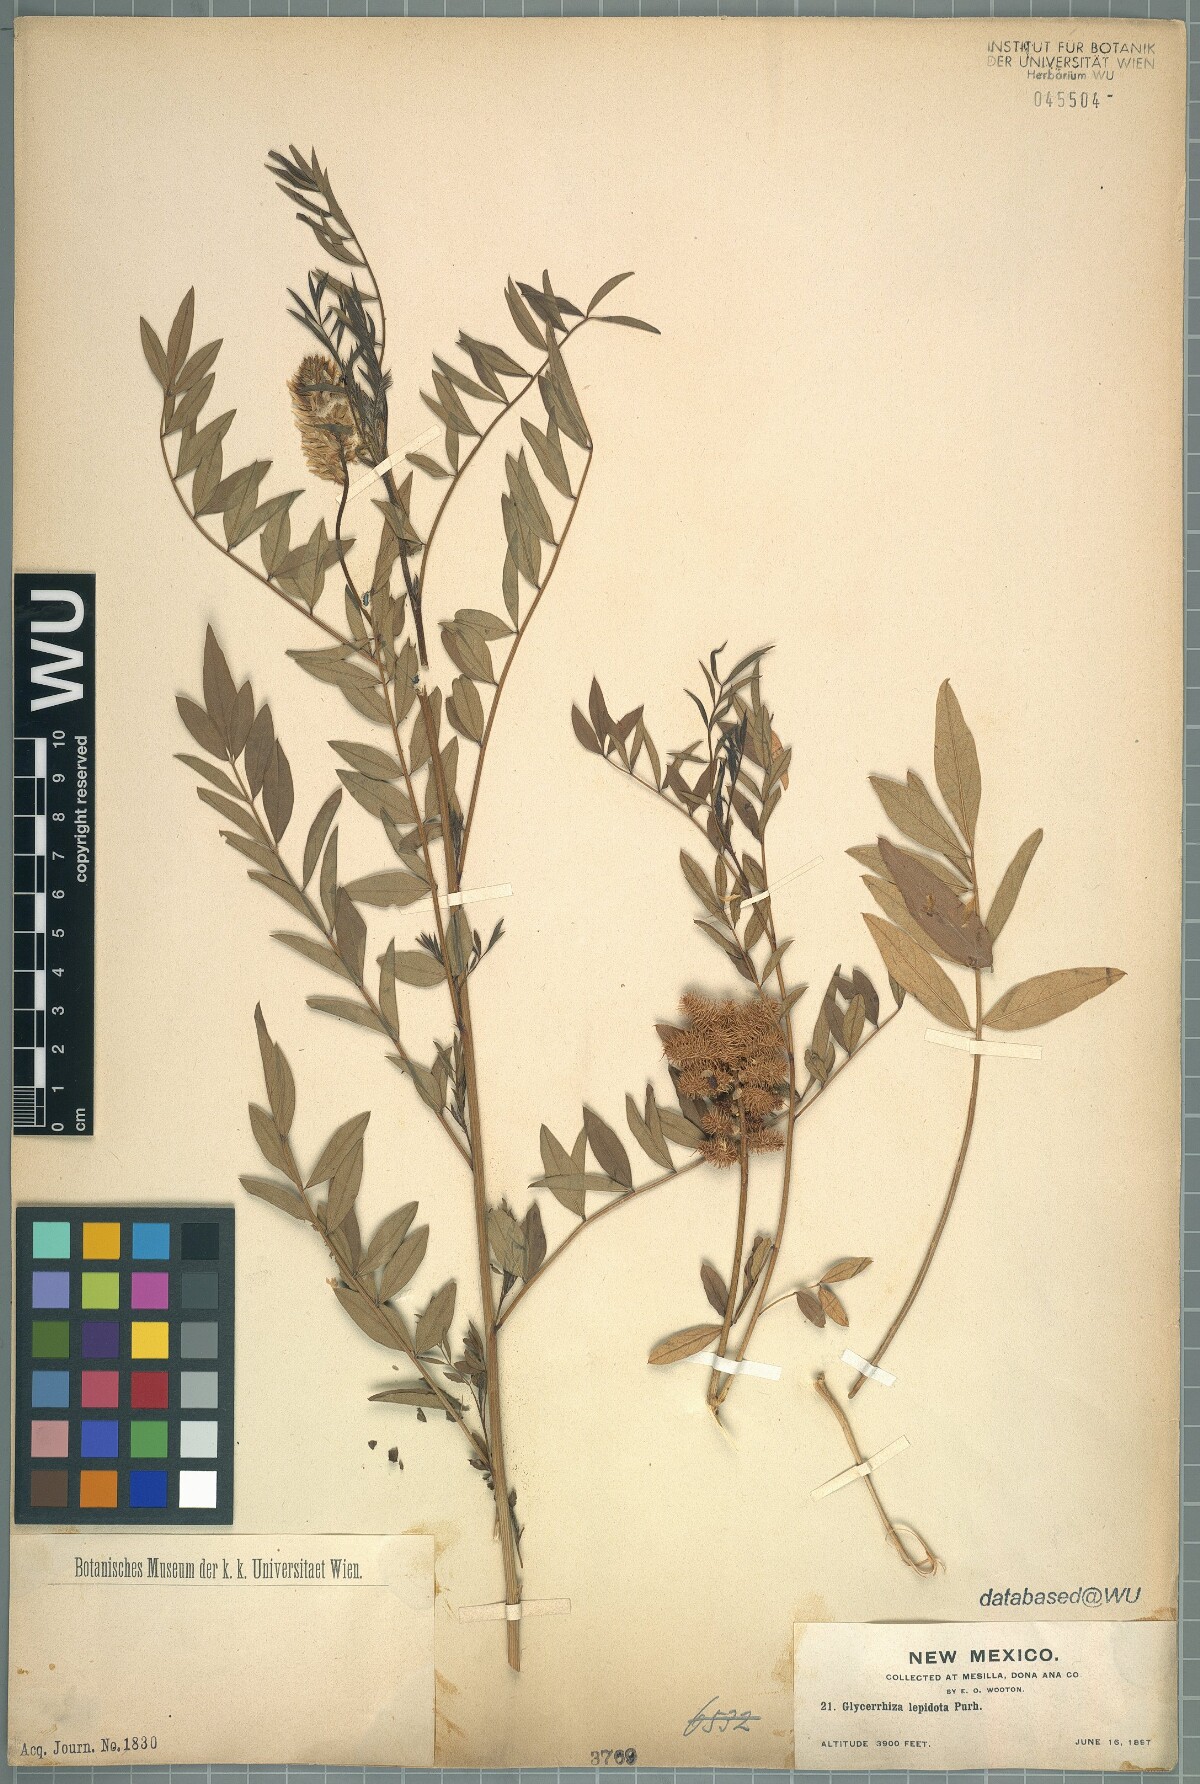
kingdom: Plantae
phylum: Tracheophyta
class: Magnoliopsida
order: Fabales
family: Fabaceae
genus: Glycyrrhiza
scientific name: Glycyrrhiza lepidota
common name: American liquorice
